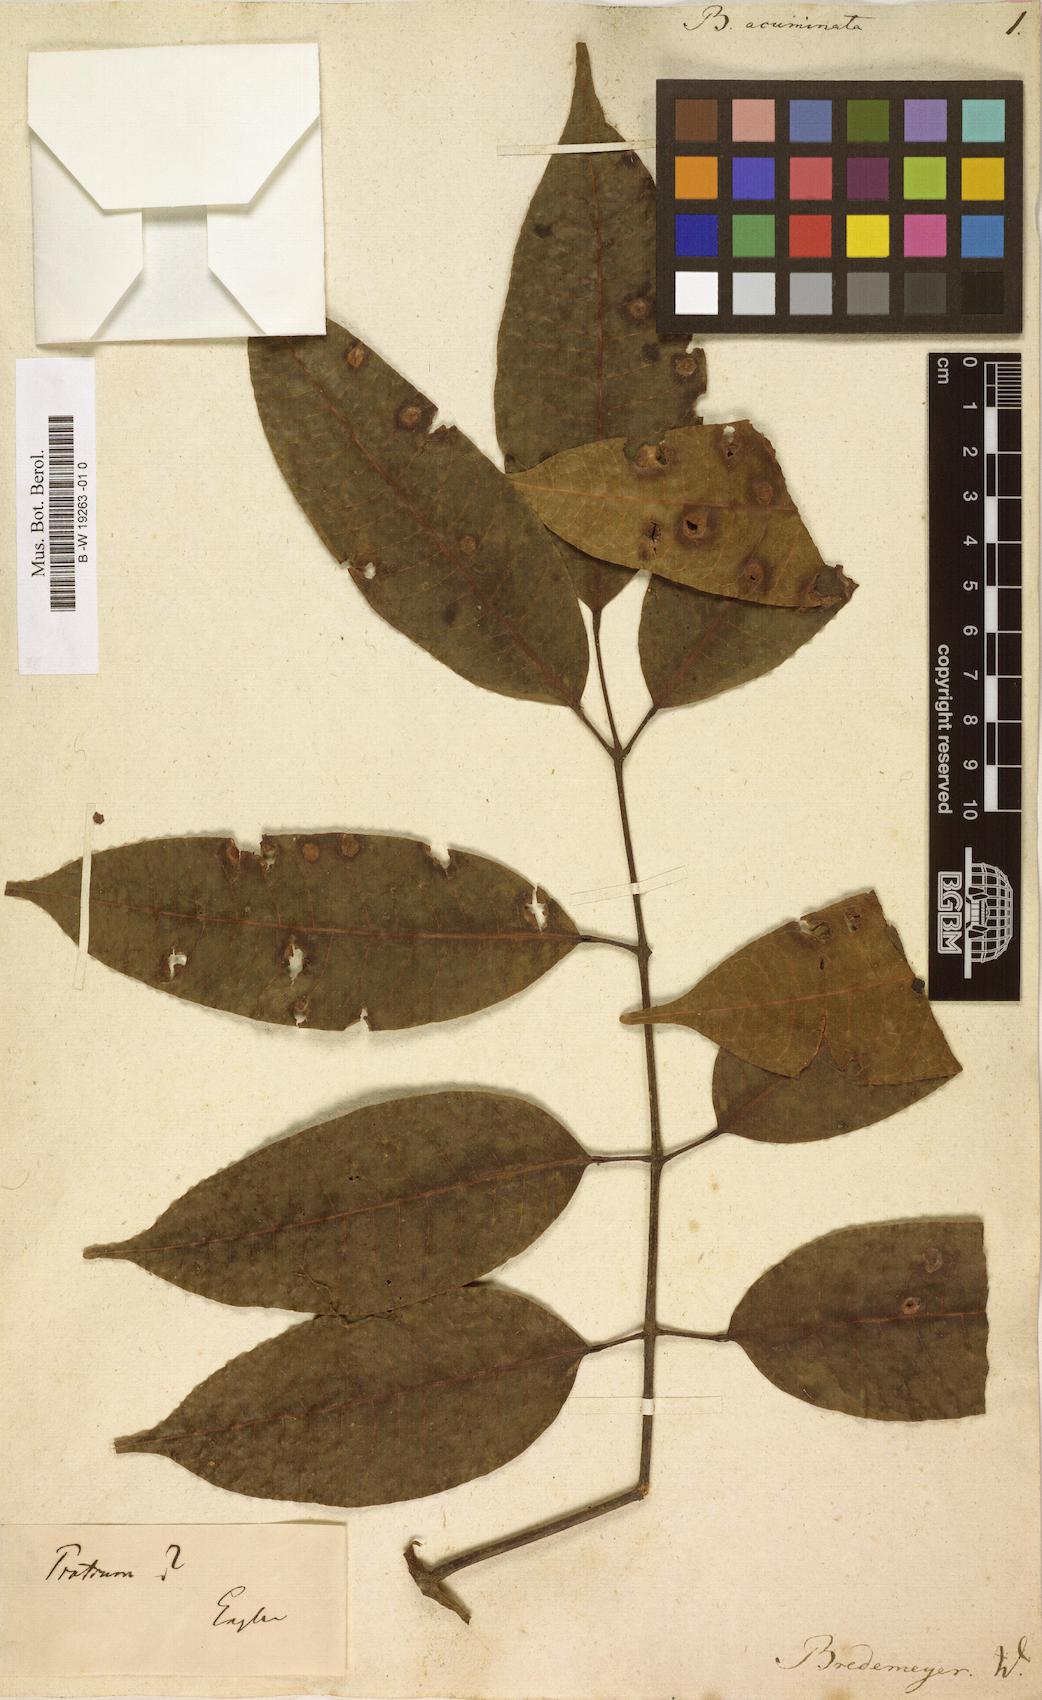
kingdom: Plantae
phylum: Tracheophyta
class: Magnoliopsida
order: Sapindales
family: Burseraceae
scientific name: Burseraceae
